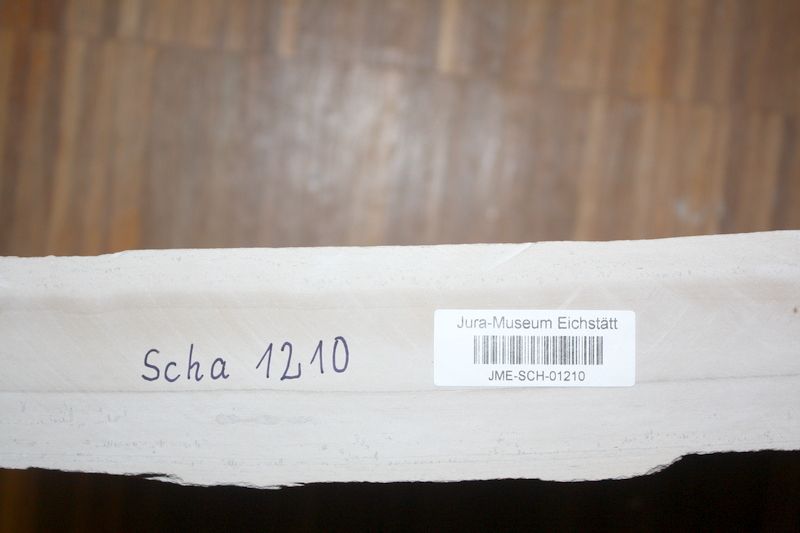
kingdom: Animalia
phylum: Chordata
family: Ascalaboidae
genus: Tharsis
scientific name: Tharsis dubius
